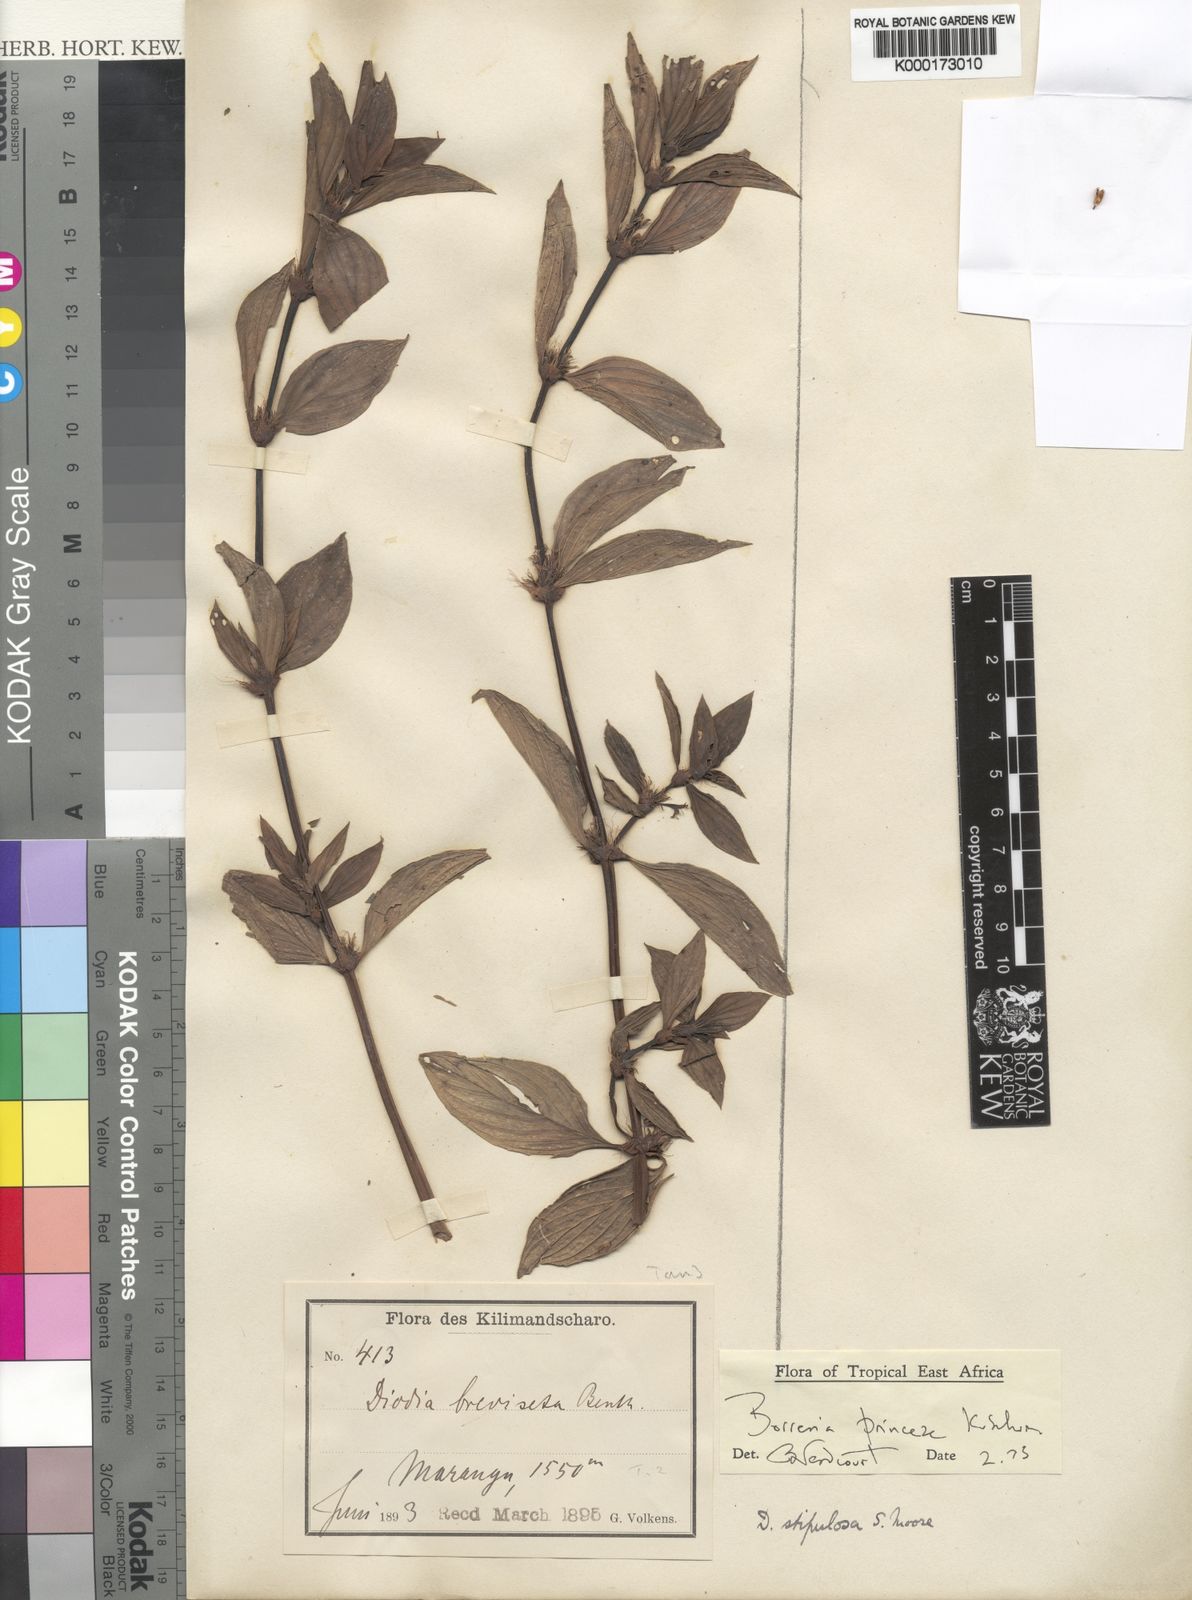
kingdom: Plantae
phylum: Tracheophyta
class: Magnoliopsida
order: Gentianales
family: Rubiaceae
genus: Spermacoce
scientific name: Spermacoce princeae
